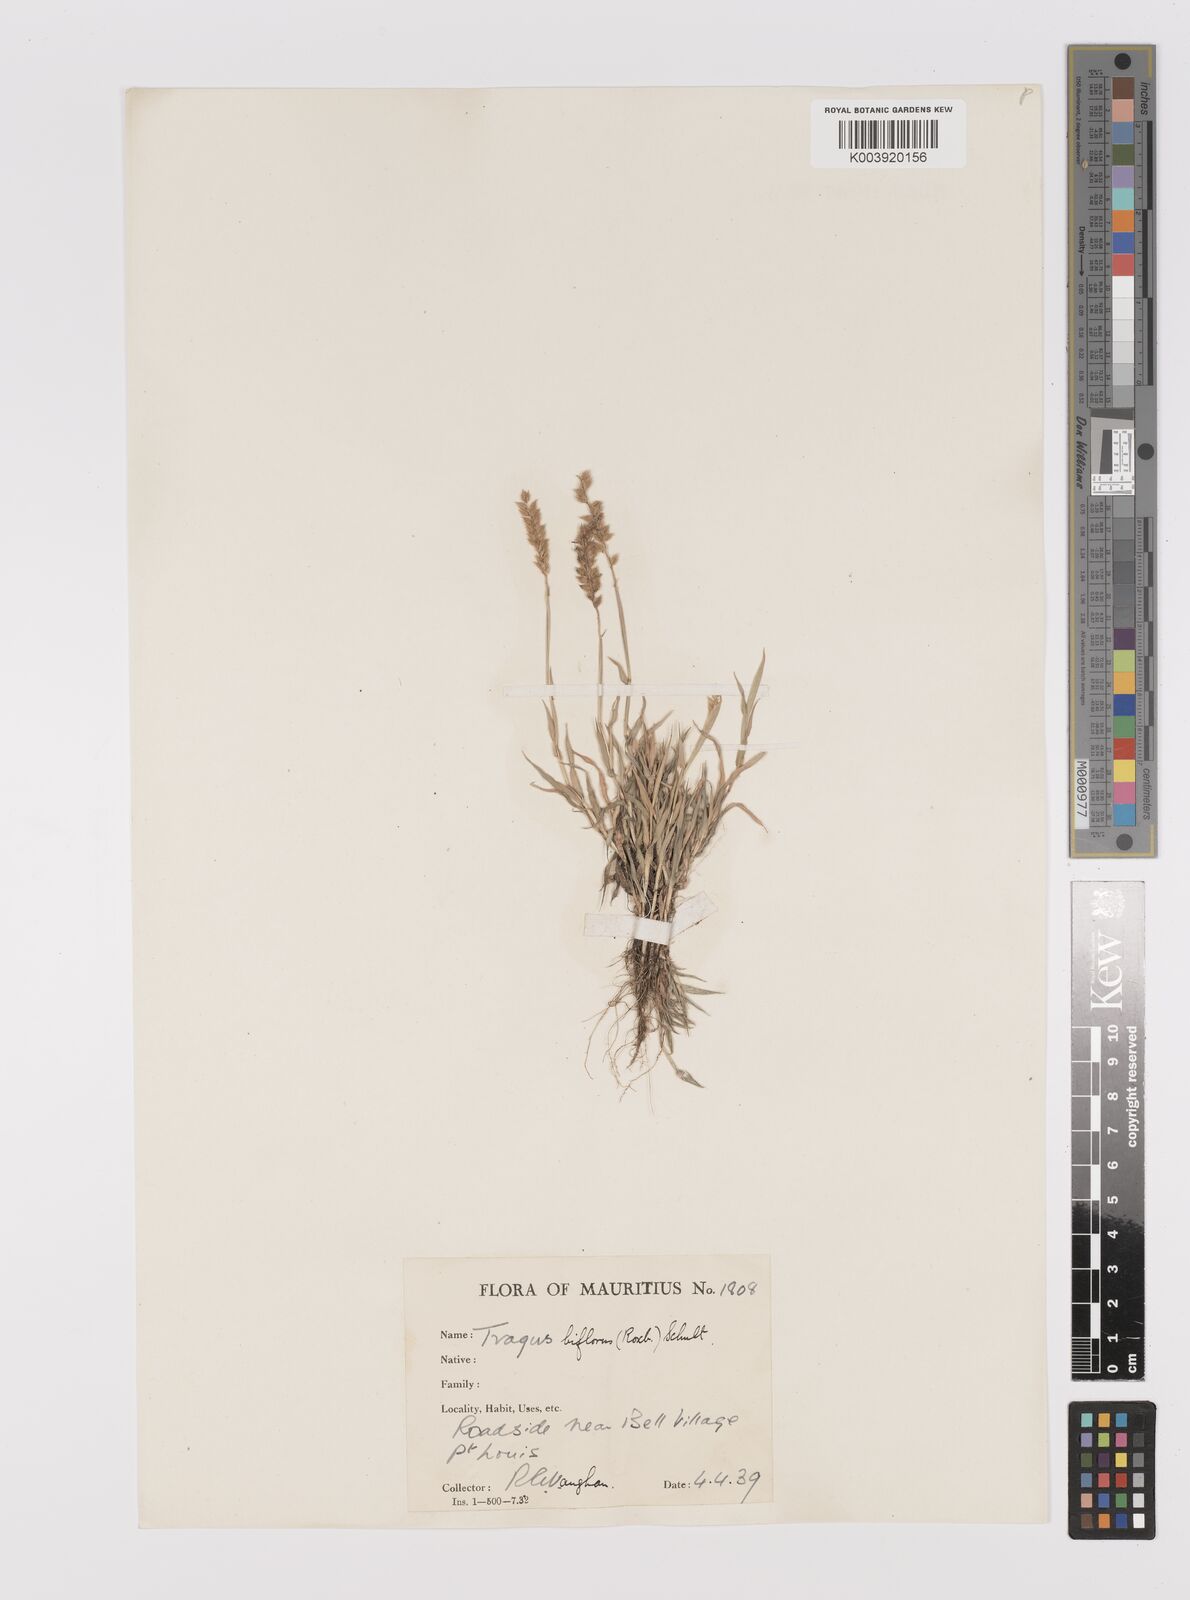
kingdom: Plantae
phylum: Tracheophyta
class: Liliopsida
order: Poales
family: Poaceae
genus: Tragus
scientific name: Tragus mongolorum
